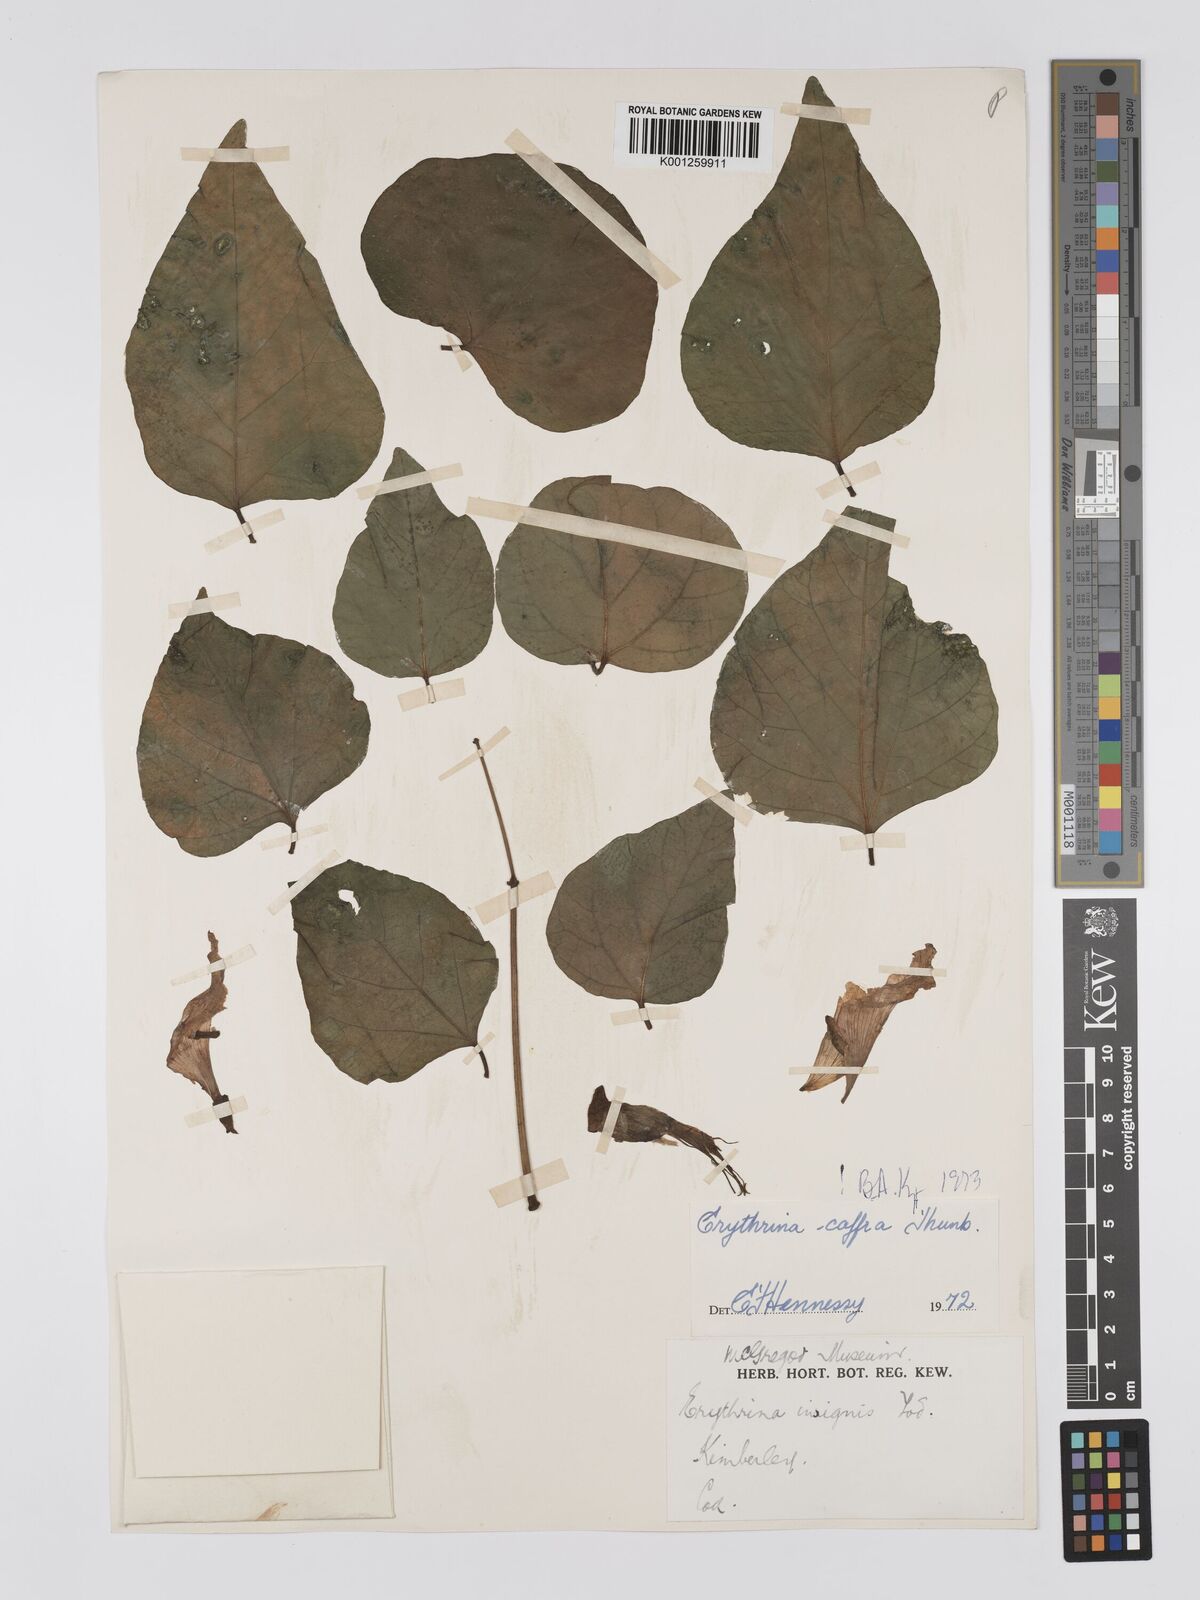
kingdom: Plantae
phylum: Tracheophyta
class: Magnoliopsida
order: Fabales
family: Fabaceae
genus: Erythrina
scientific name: Erythrina caffra
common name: Coast coral tree
